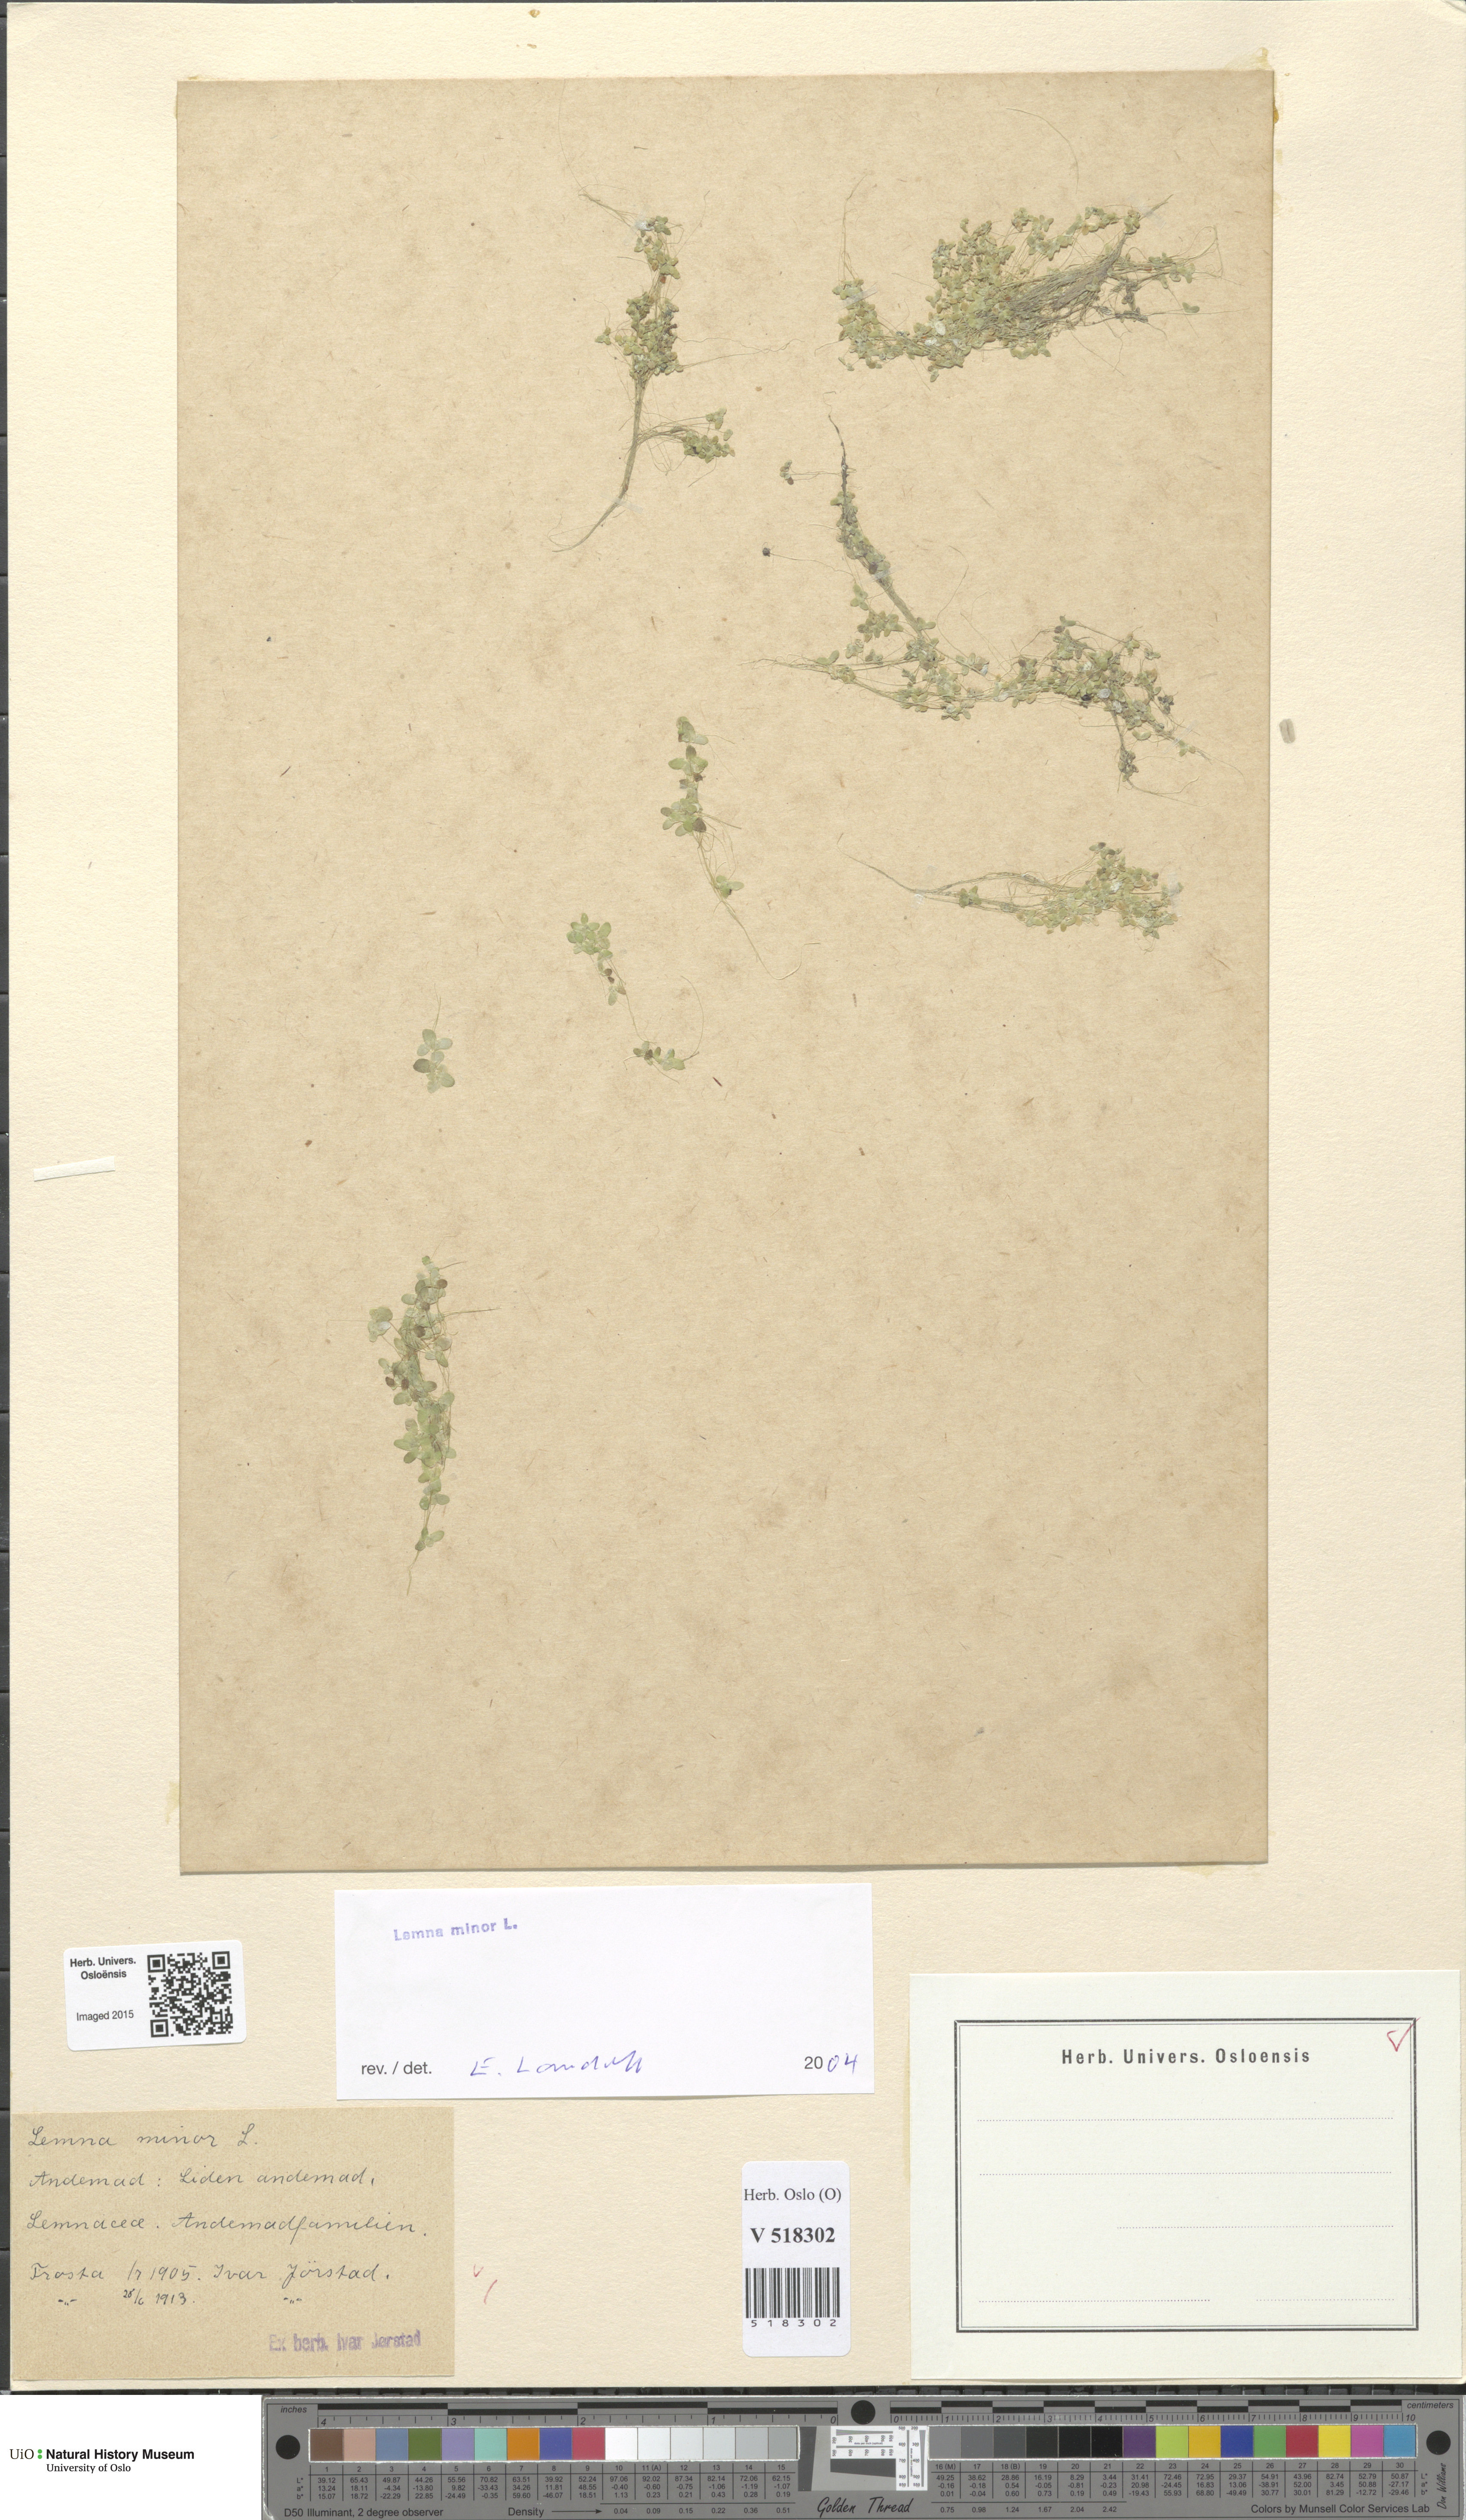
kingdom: Plantae
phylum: Tracheophyta
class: Liliopsida
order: Alismatales
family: Araceae
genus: Lemna
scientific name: Lemna minor
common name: Common duckweed
